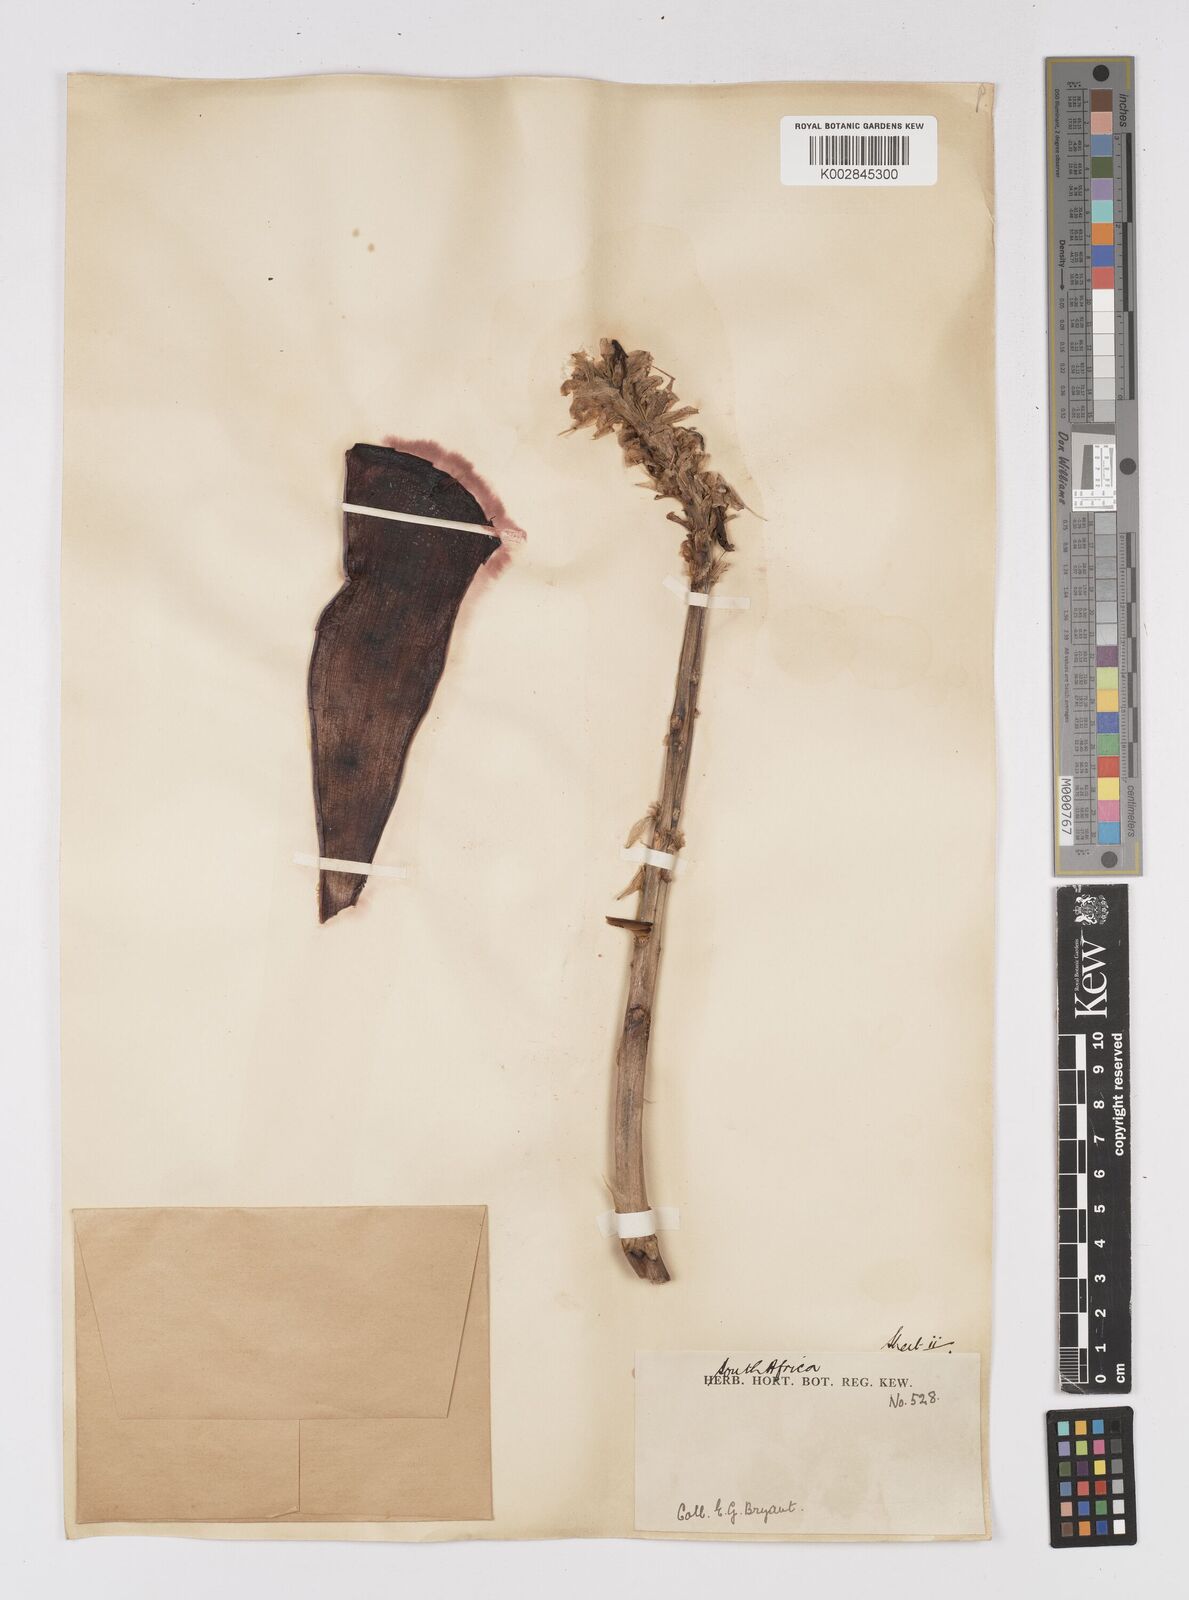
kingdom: Plantae
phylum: Tracheophyta
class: Liliopsida
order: Asparagales
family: Asphodelaceae
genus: Aloe
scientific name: Aloe
